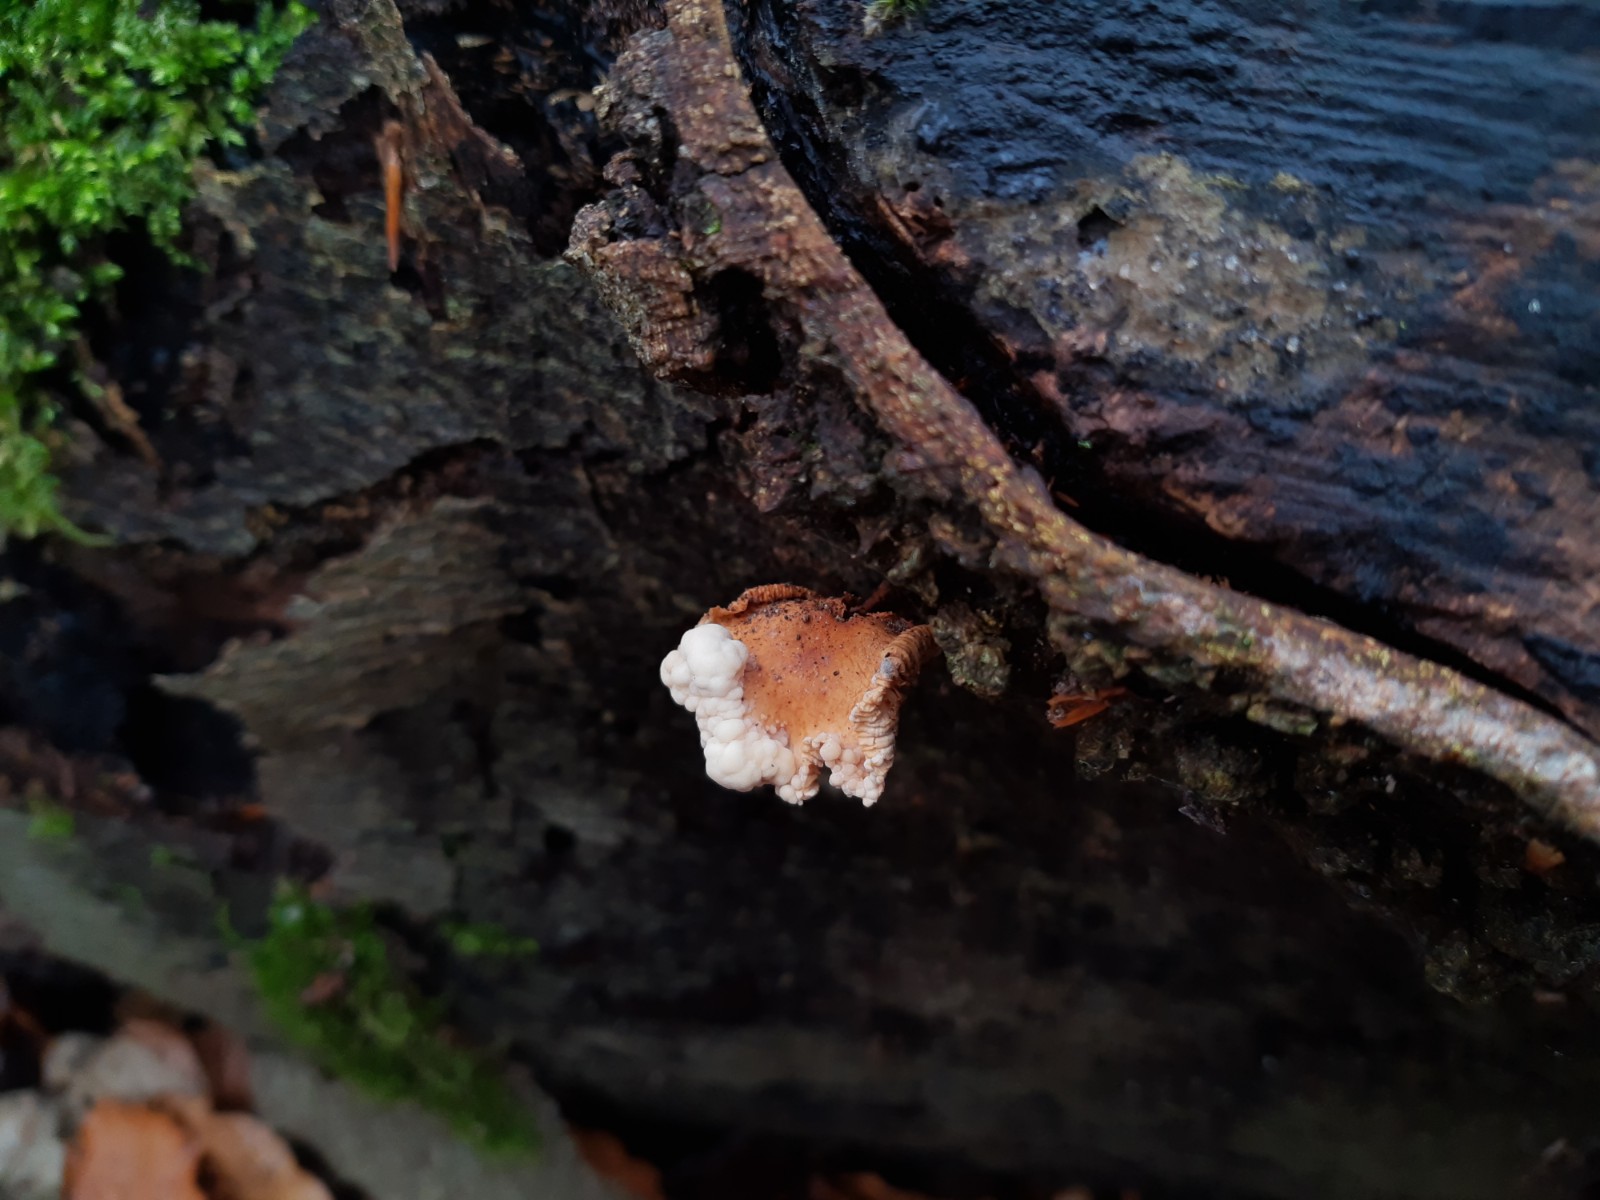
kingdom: Fungi
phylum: Basidiomycota
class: Tremellomycetes
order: Filobasidiales
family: Filobasidiaceae
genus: Syzygospora
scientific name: Syzygospora tumefaciens
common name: fladhatte-snyltehjerne
